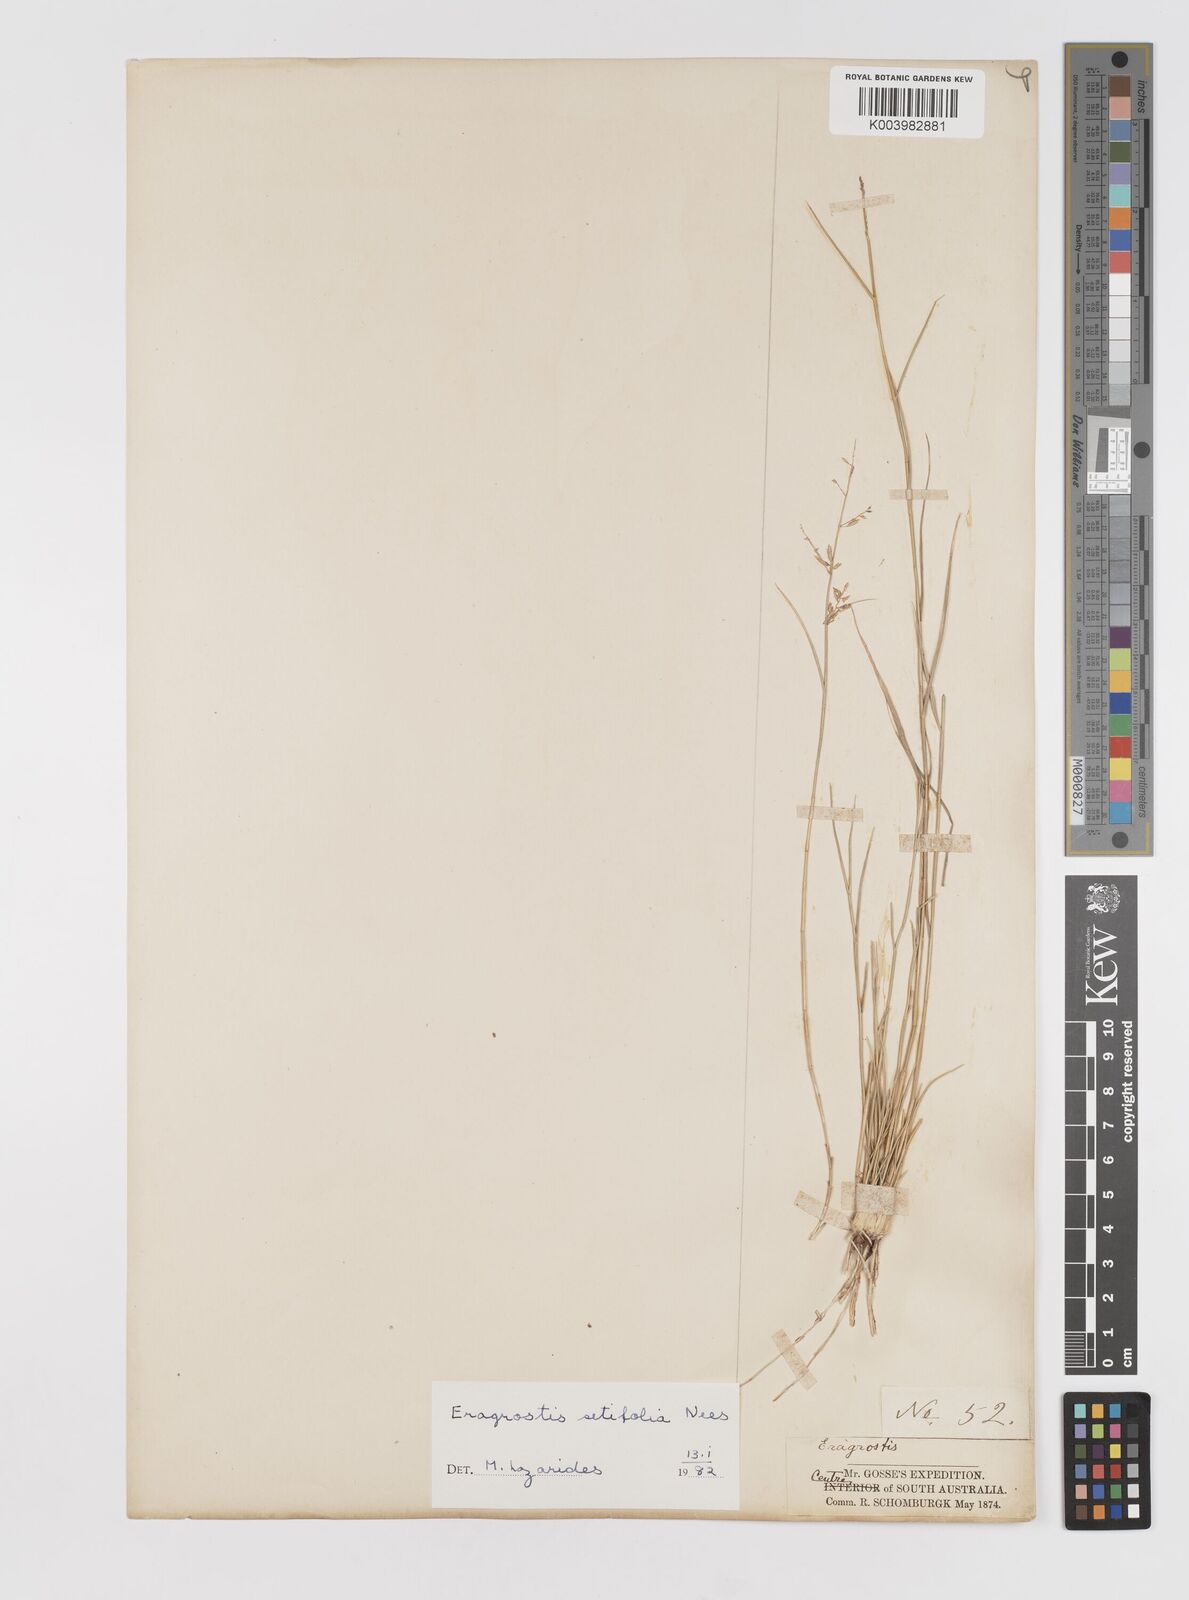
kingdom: Plantae
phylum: Tracheophyta
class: Liliopsida
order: Poales
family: Poaceae
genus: Eragrostis
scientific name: Eragrostis setifolia
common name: Bristleleaf lovegrass
